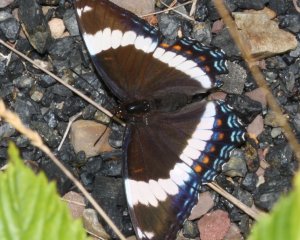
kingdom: Animalia
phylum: Arthropoda
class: Insecta
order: Lepidoptera
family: Nymphalidae
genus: Limenitis
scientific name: Limenitis arthemis
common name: Red-spotted Admiral
